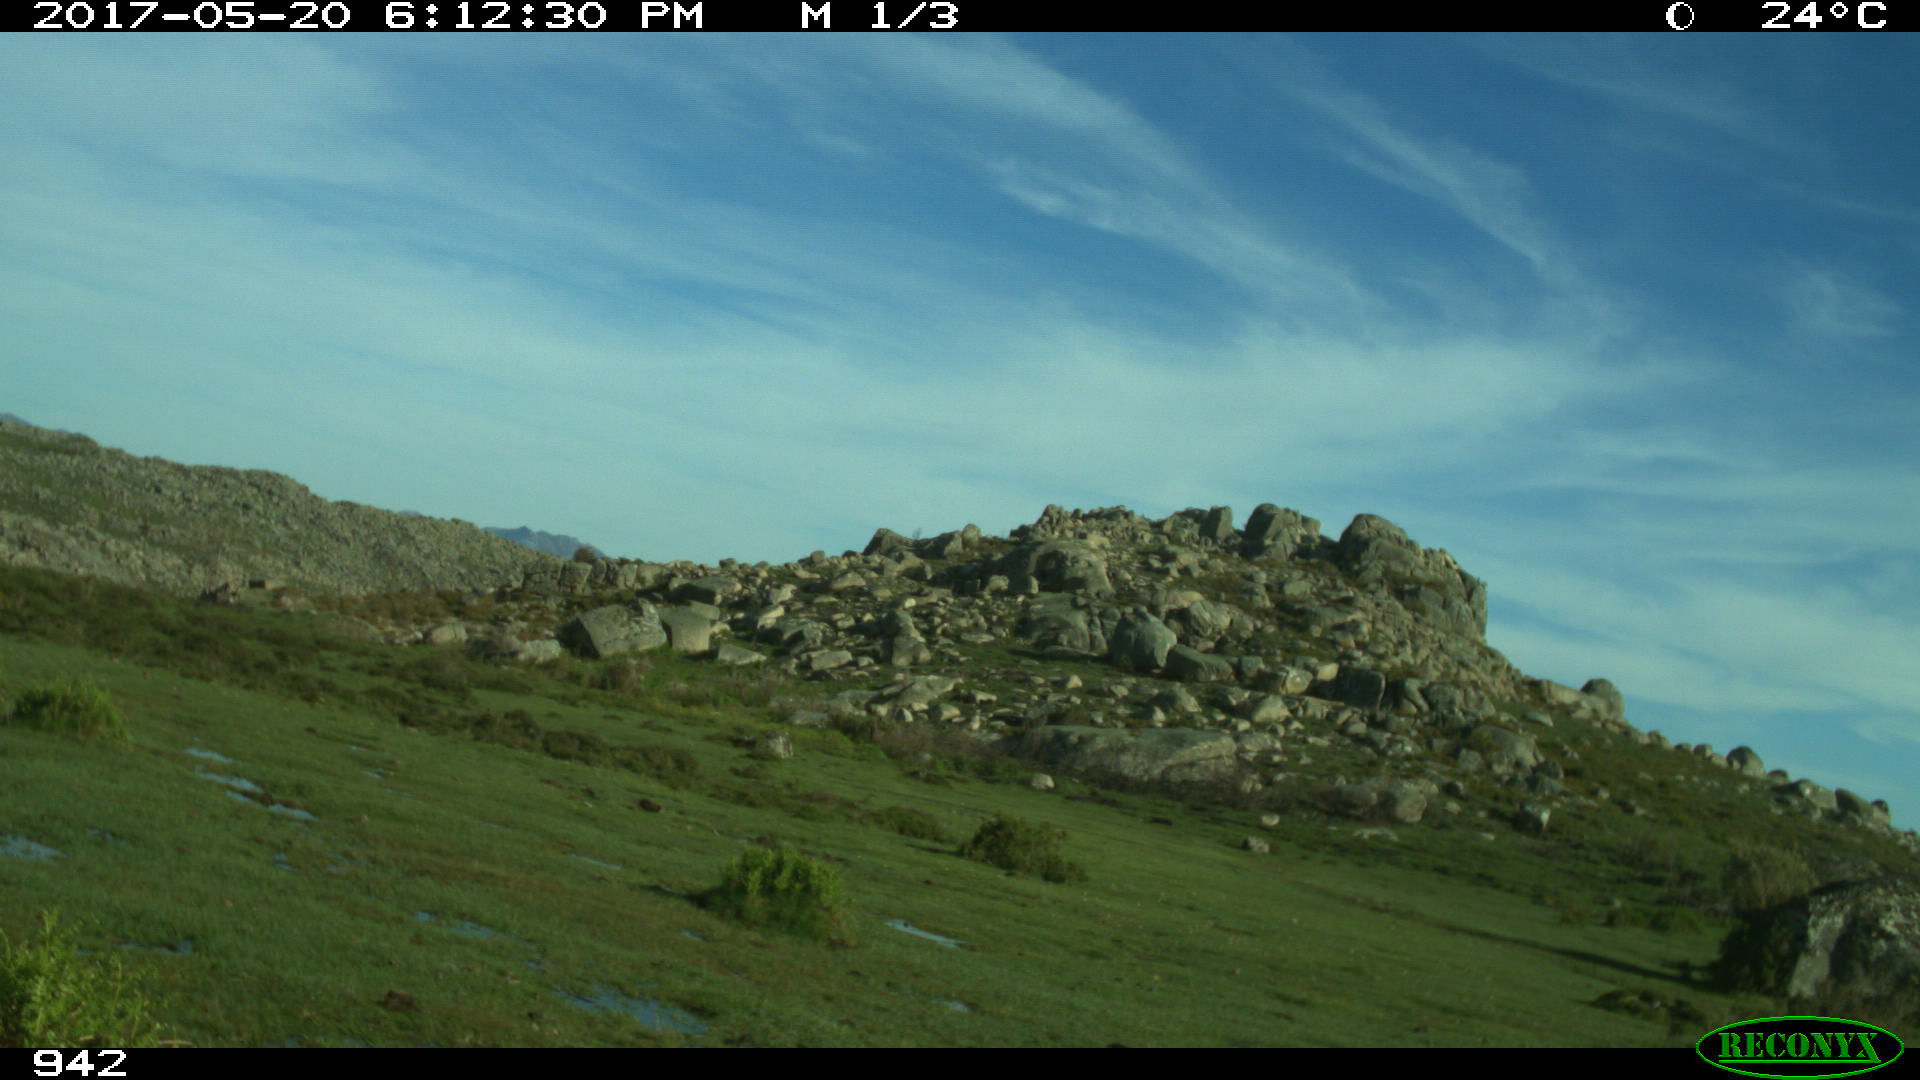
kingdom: Animalia
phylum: Chordata
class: Mammalia
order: Artiodactyla
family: Bovidae
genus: Bos
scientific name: Bos taurus
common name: Domesticated cattle
